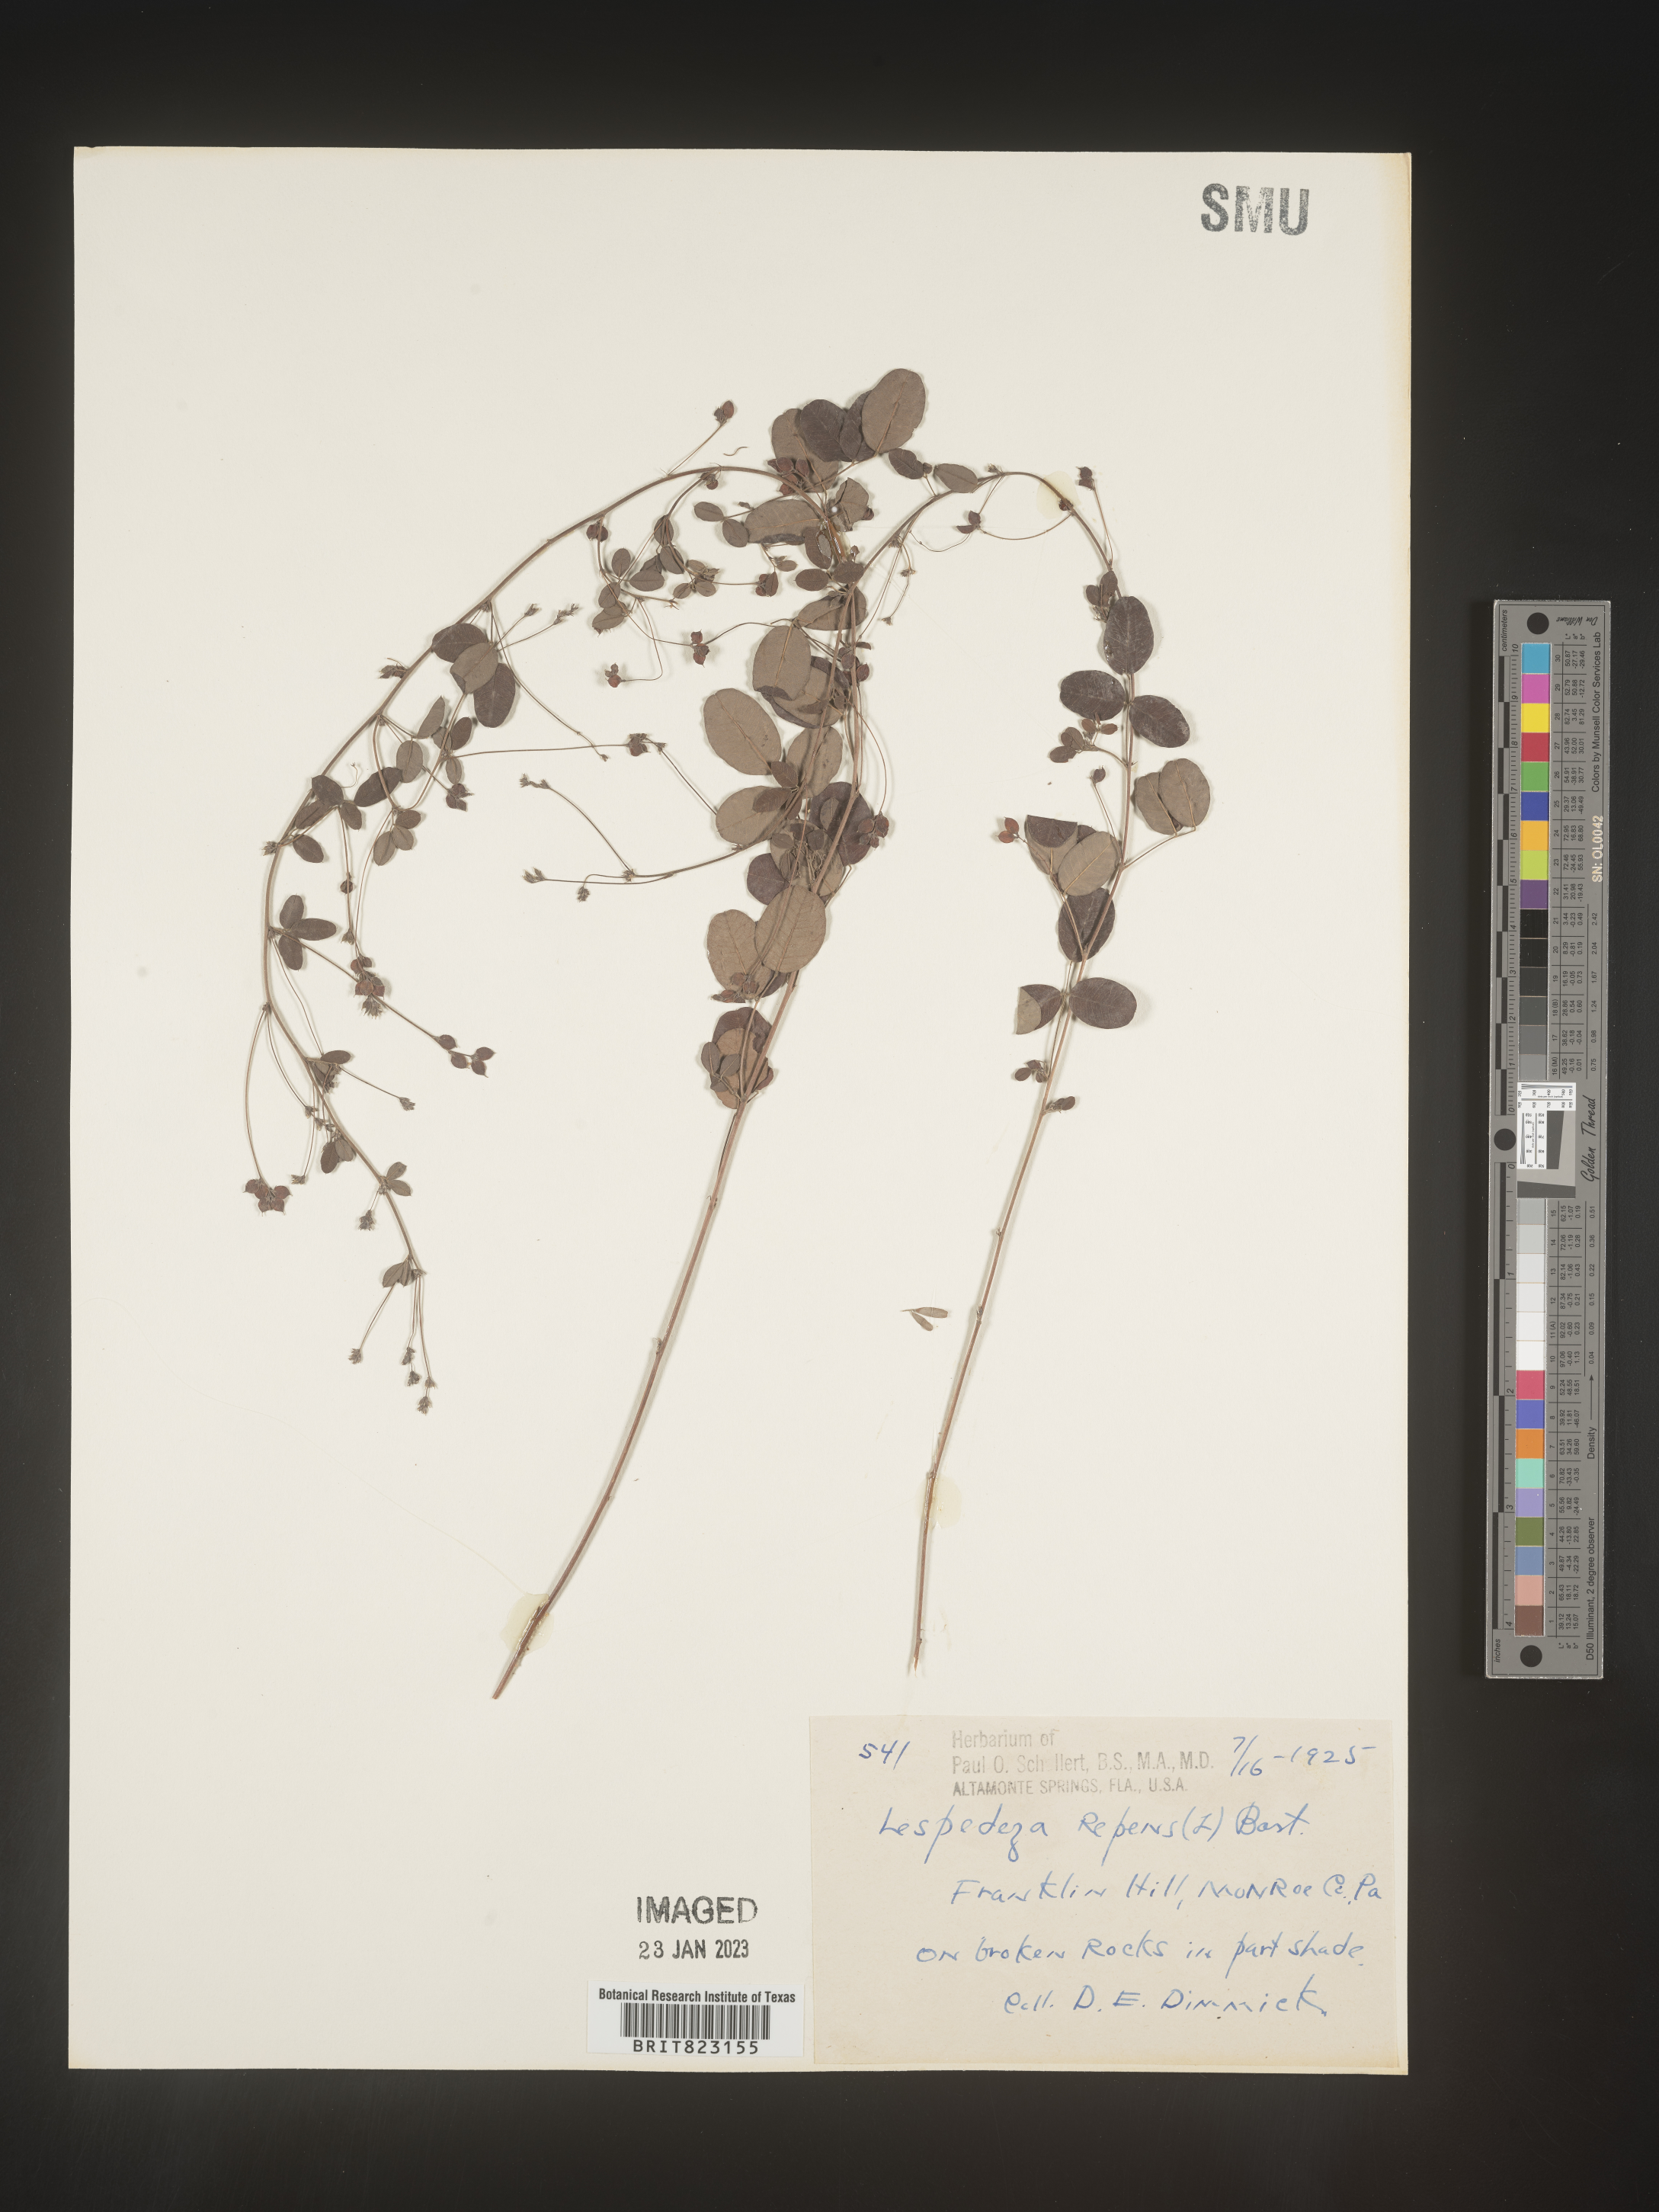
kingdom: Plantae
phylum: Tracheophyta
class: Magnoliopsida
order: Fabales
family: Fabaceae
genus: Lespedeza
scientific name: Lespedeza repens
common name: Creeping bush-clover
